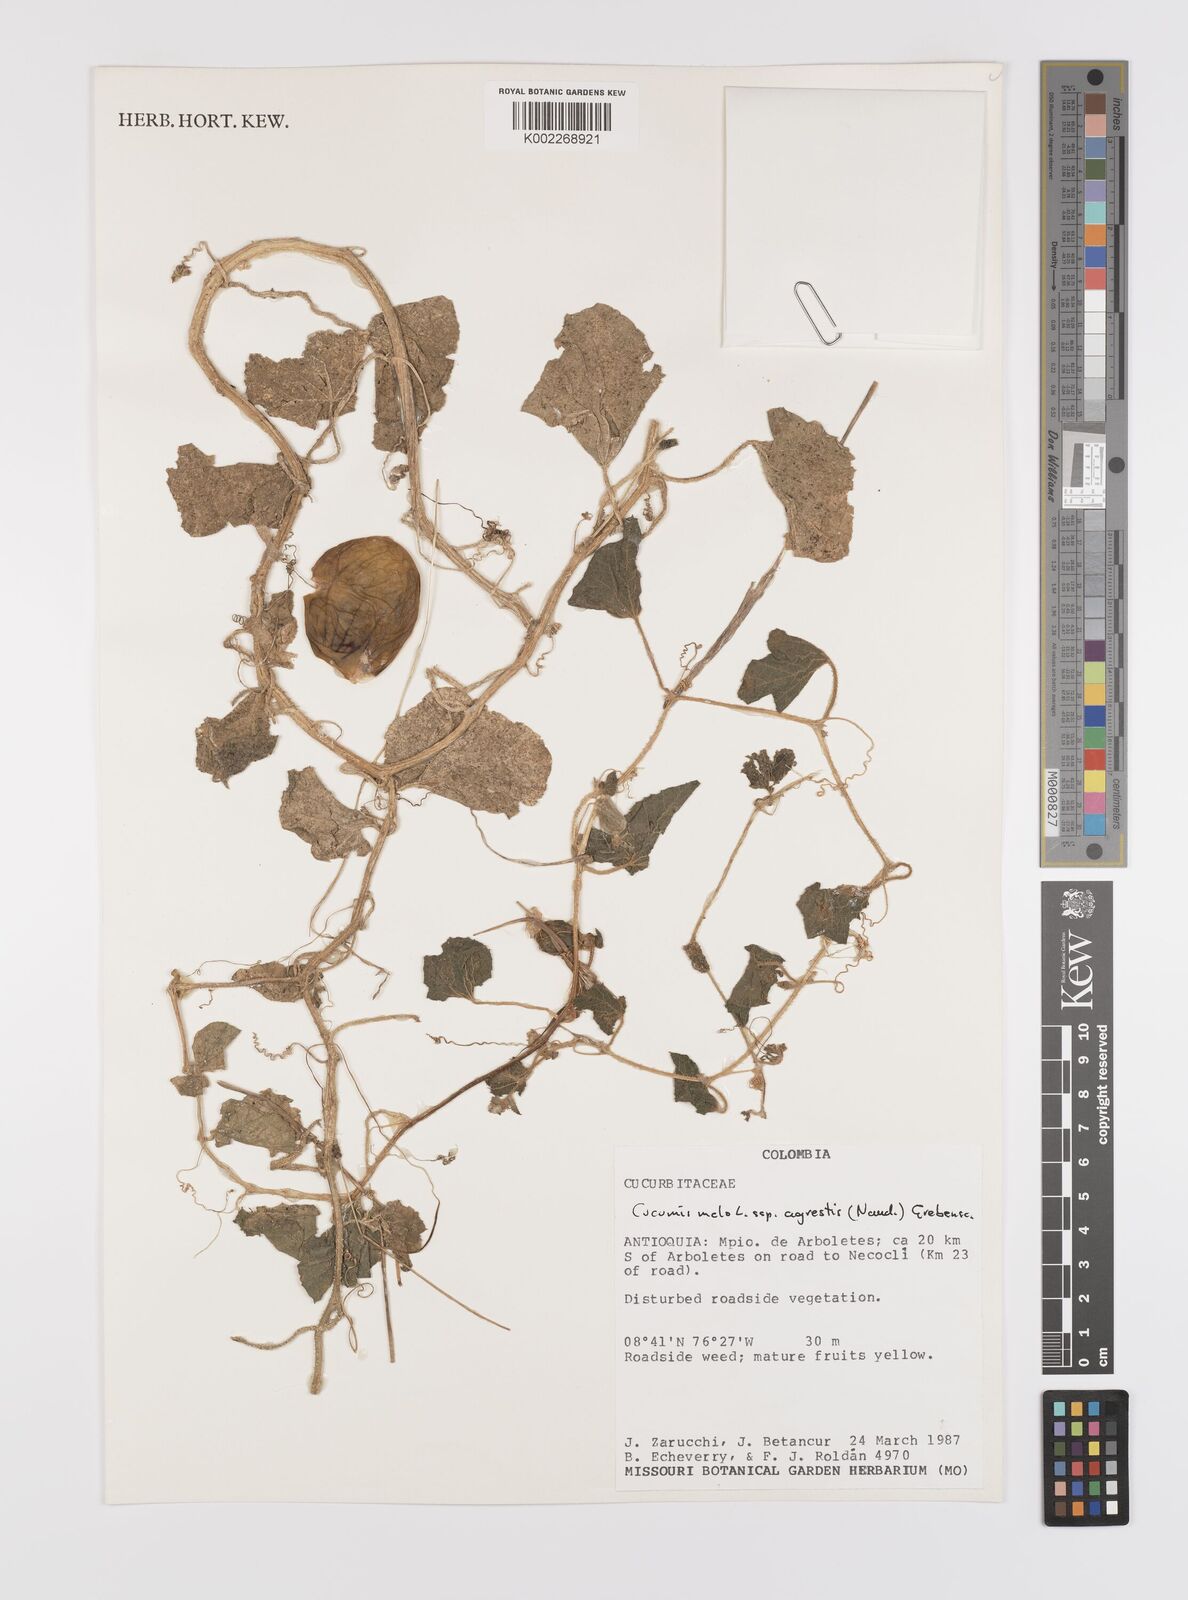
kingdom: Plantae
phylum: Tracheophyta
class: Magnoliopsida
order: Cucurbitales
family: Cucurbitaceae
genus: Cucumis
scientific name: Cucumis melo
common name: Melon
